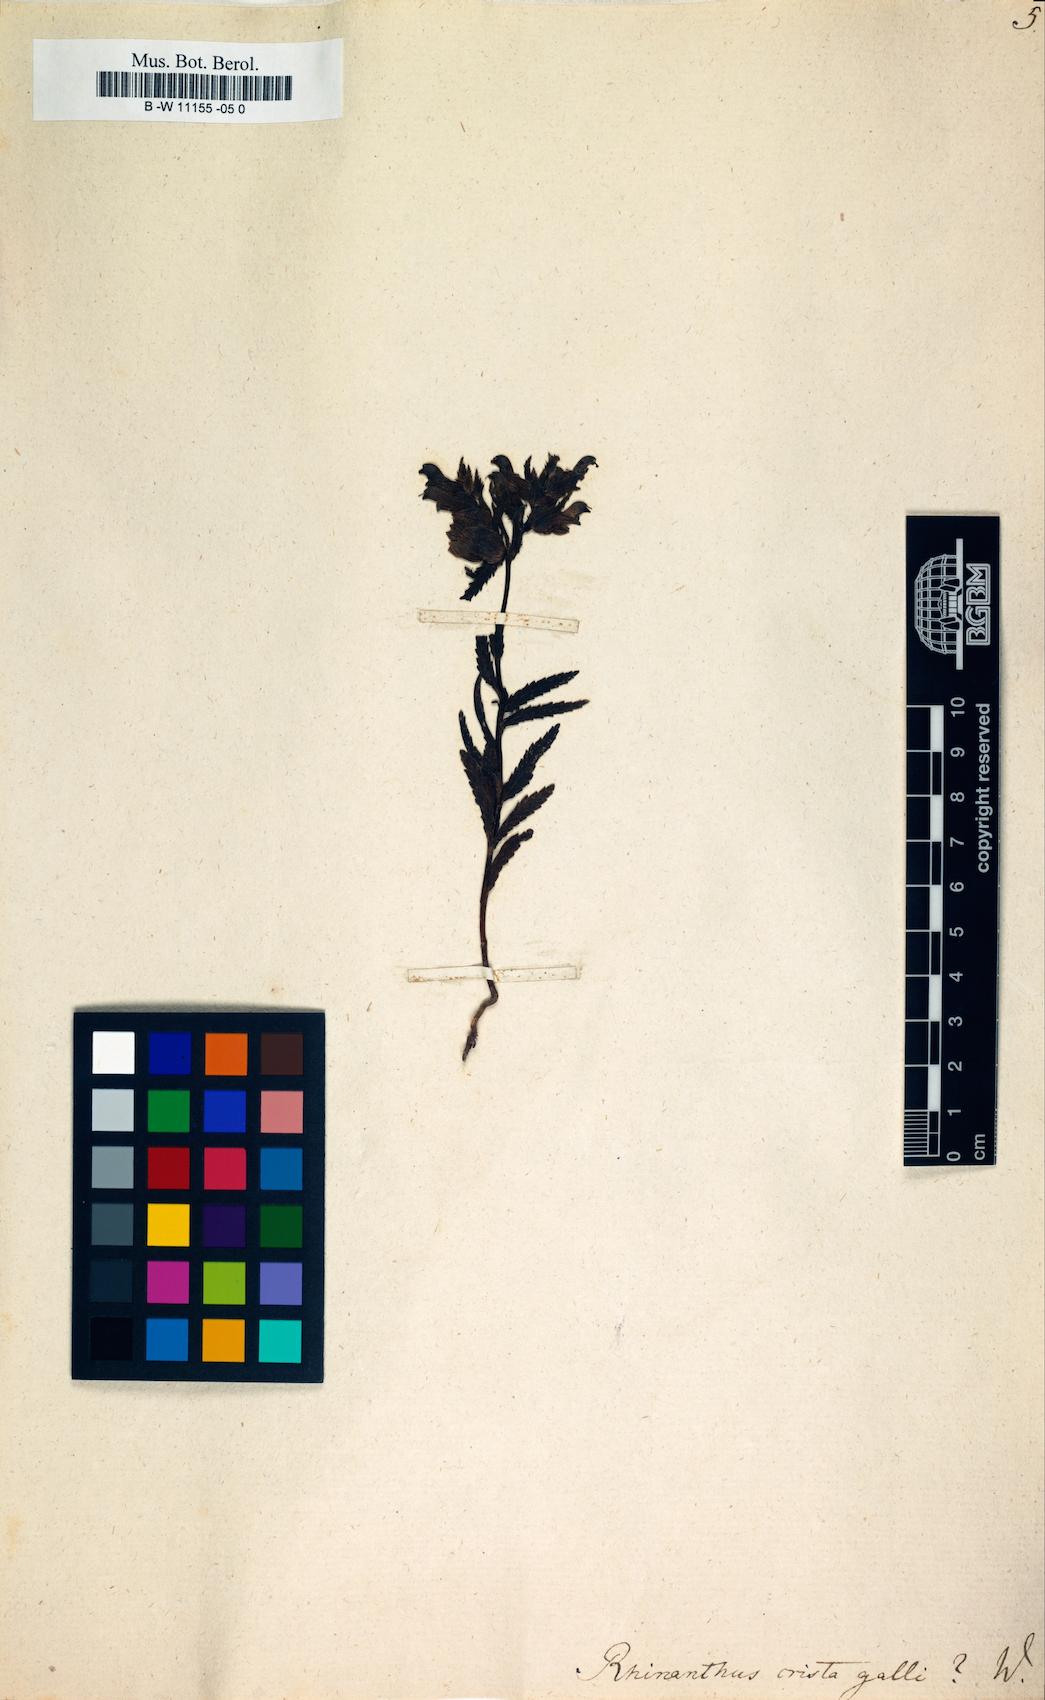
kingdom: Plantae
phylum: Tracheophyta
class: Magnoliopsida
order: Lamiales
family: Orobanchaceae
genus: Rhinanthus
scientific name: Rhinanthus
